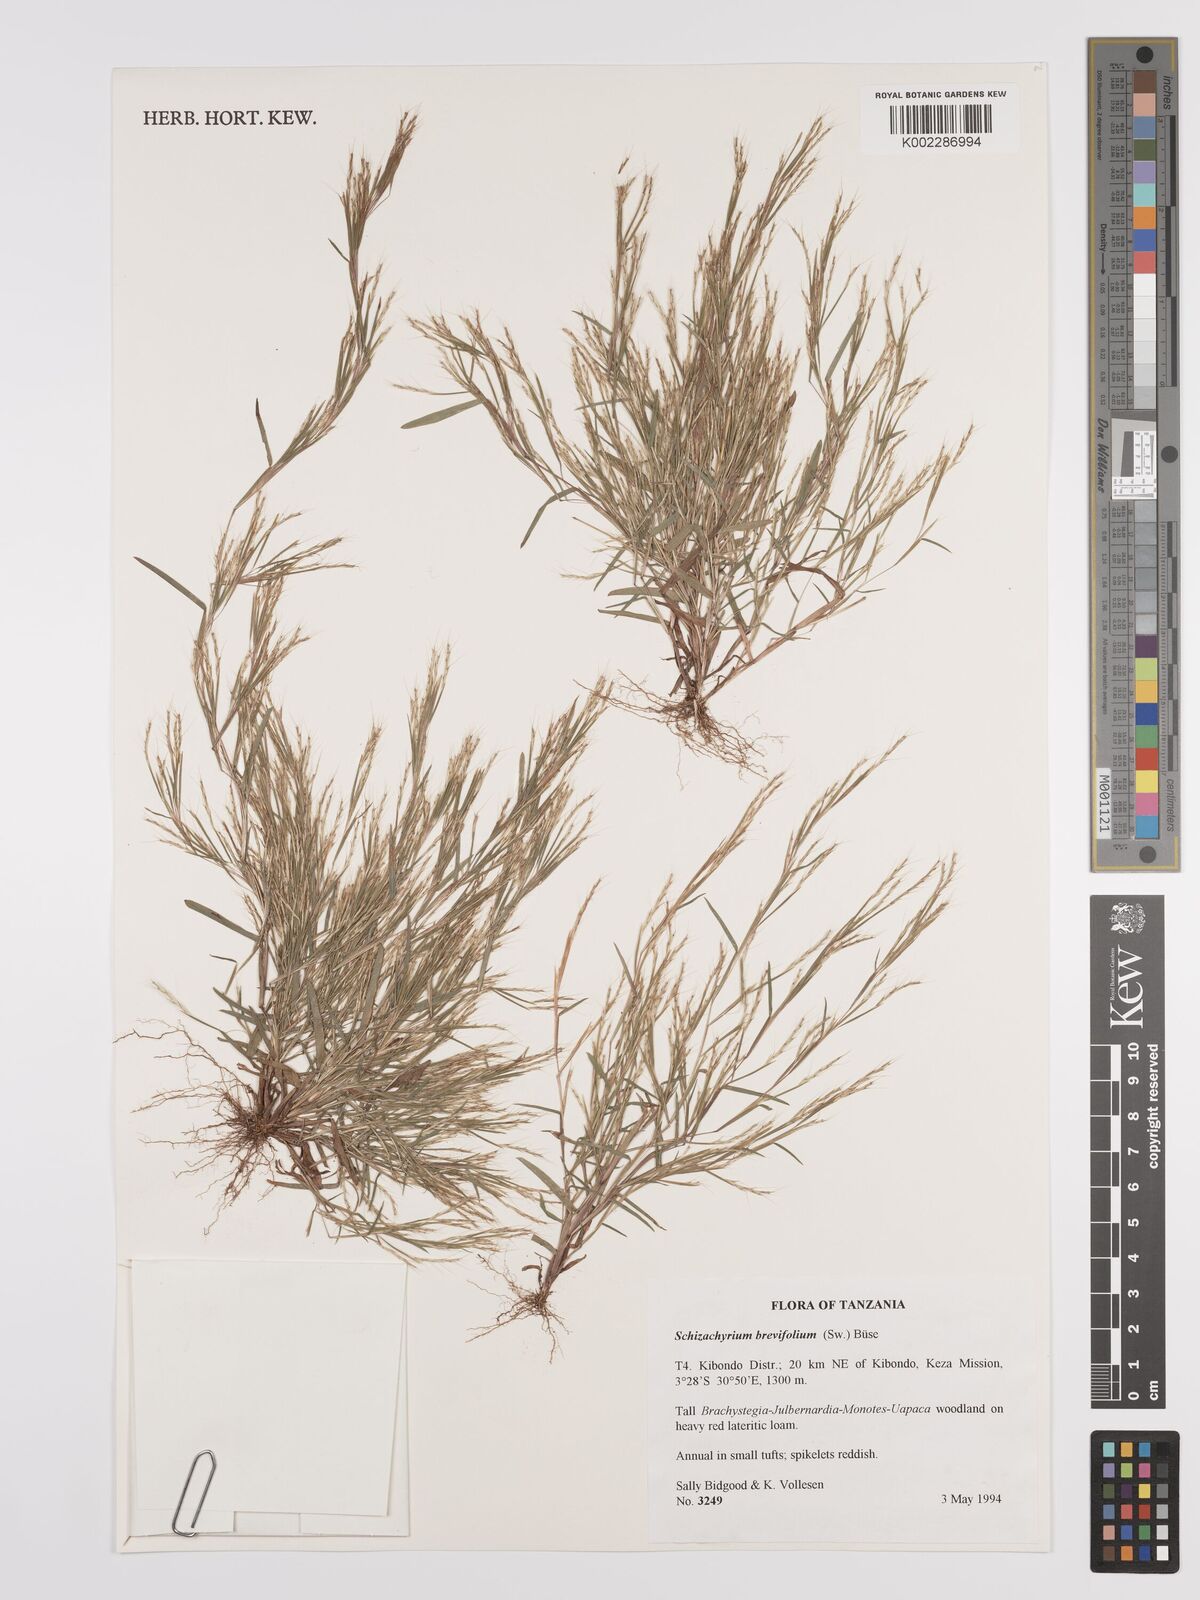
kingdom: Plantae
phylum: Tracheophyta
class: Liliopsida
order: Poales
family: Poaceae
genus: Schizachyrium
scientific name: Schizachyrium brevifolium
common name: Serillo dulce
